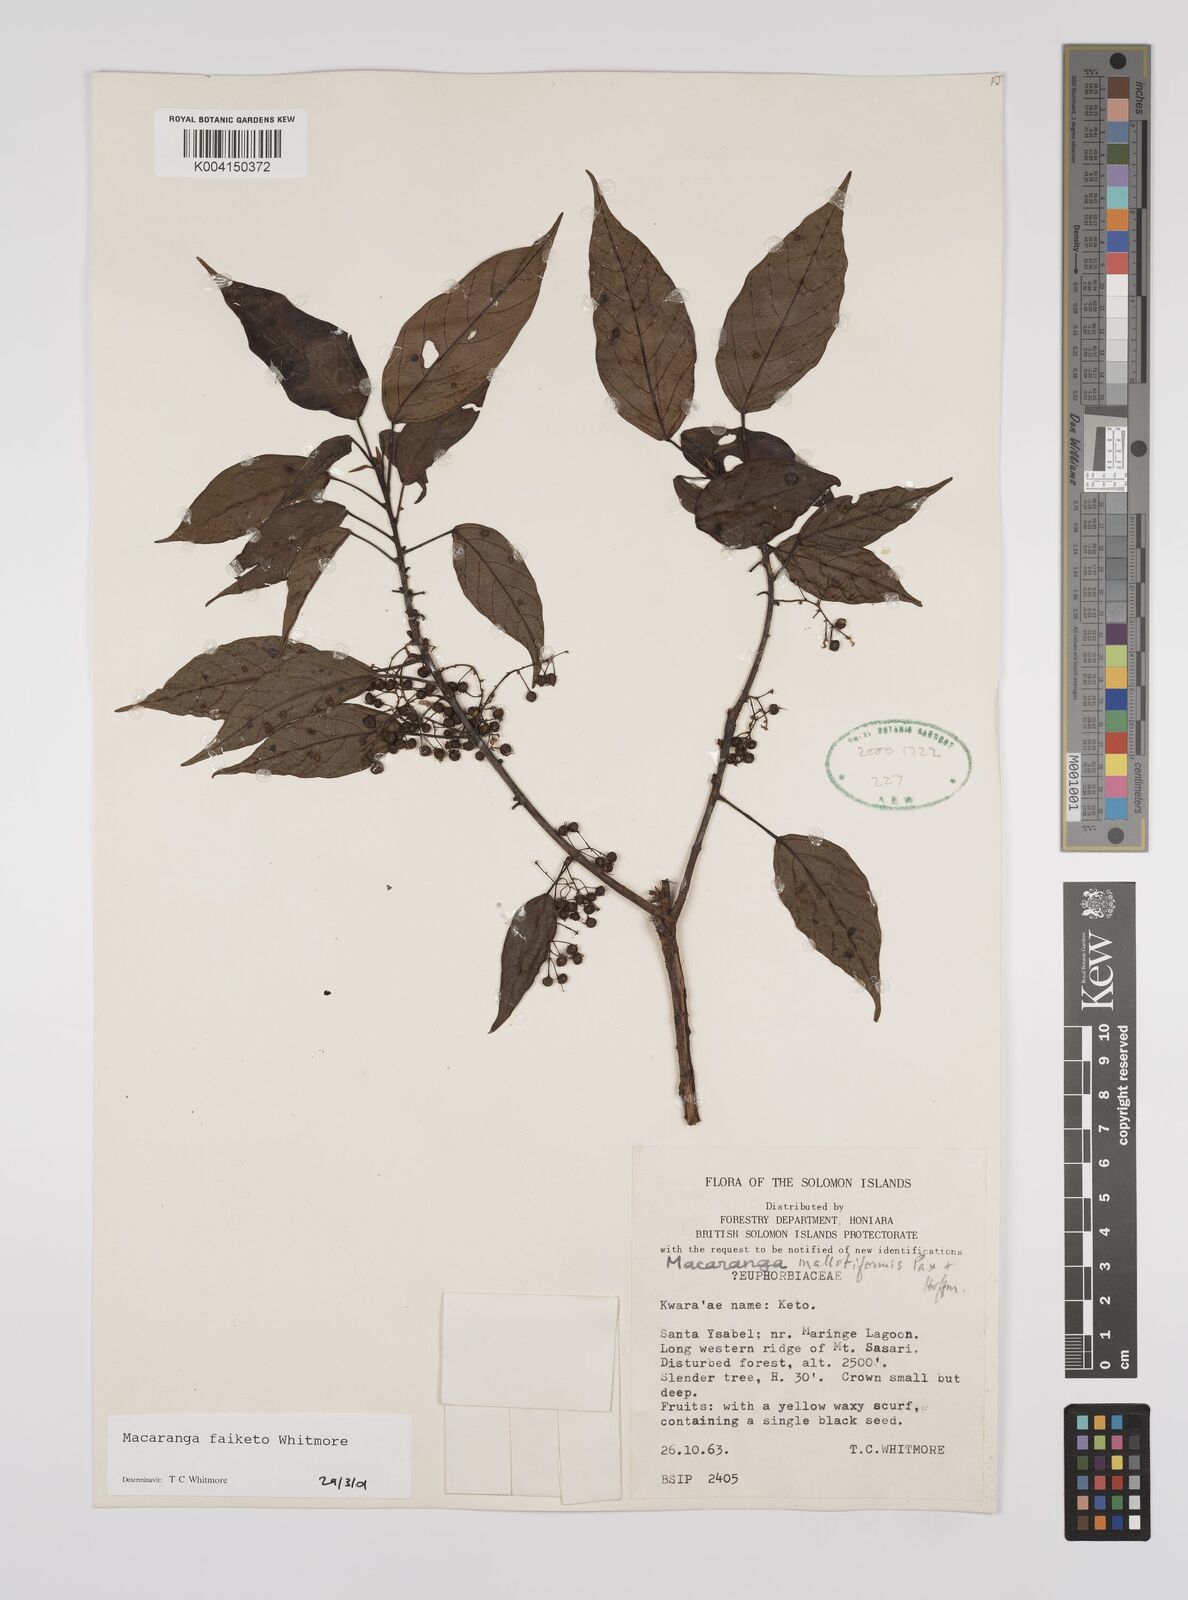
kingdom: Plantae
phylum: Tracheophyta
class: Magnoliopsida
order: Malpighiales
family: Euphorbiaceae
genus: Macaranga
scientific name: Macaranga faiketo
